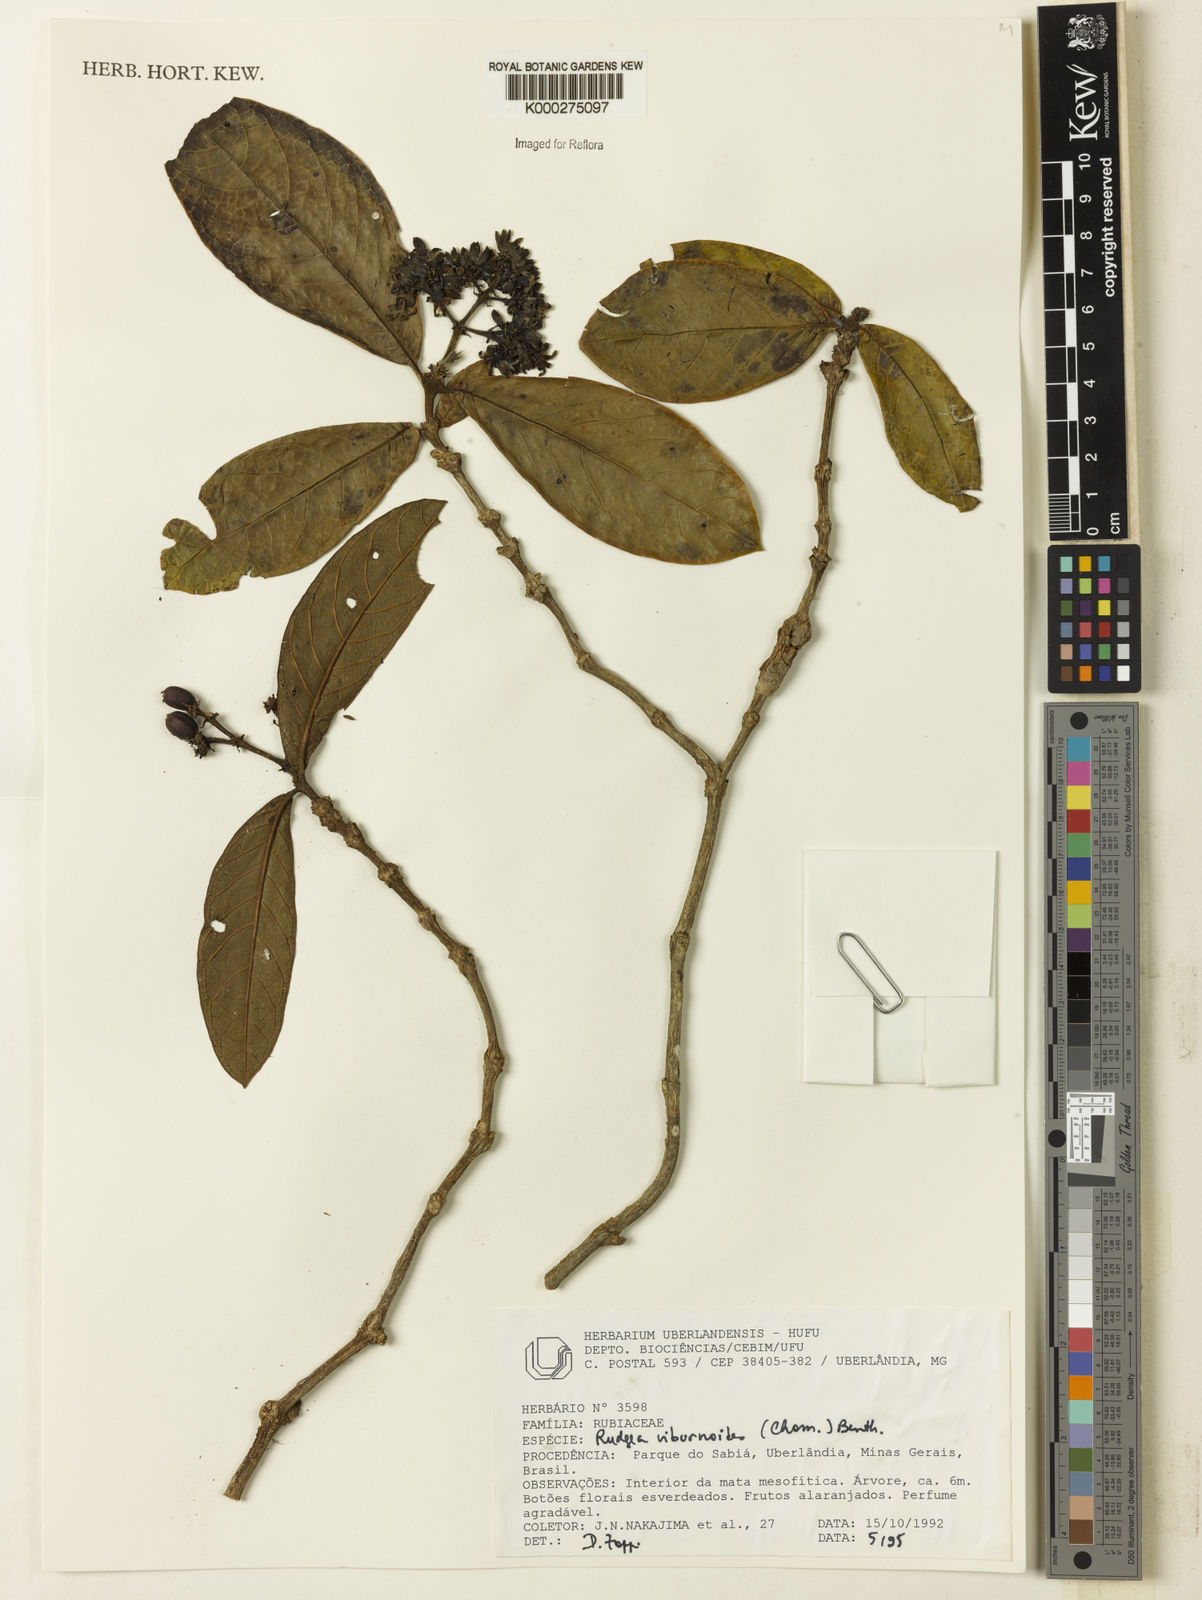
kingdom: Plantae
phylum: Tracheophyta
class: Magnoliopsida
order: Gentianales
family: Rubiaceae
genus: Rudgea
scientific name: Rudgea viburnoides
